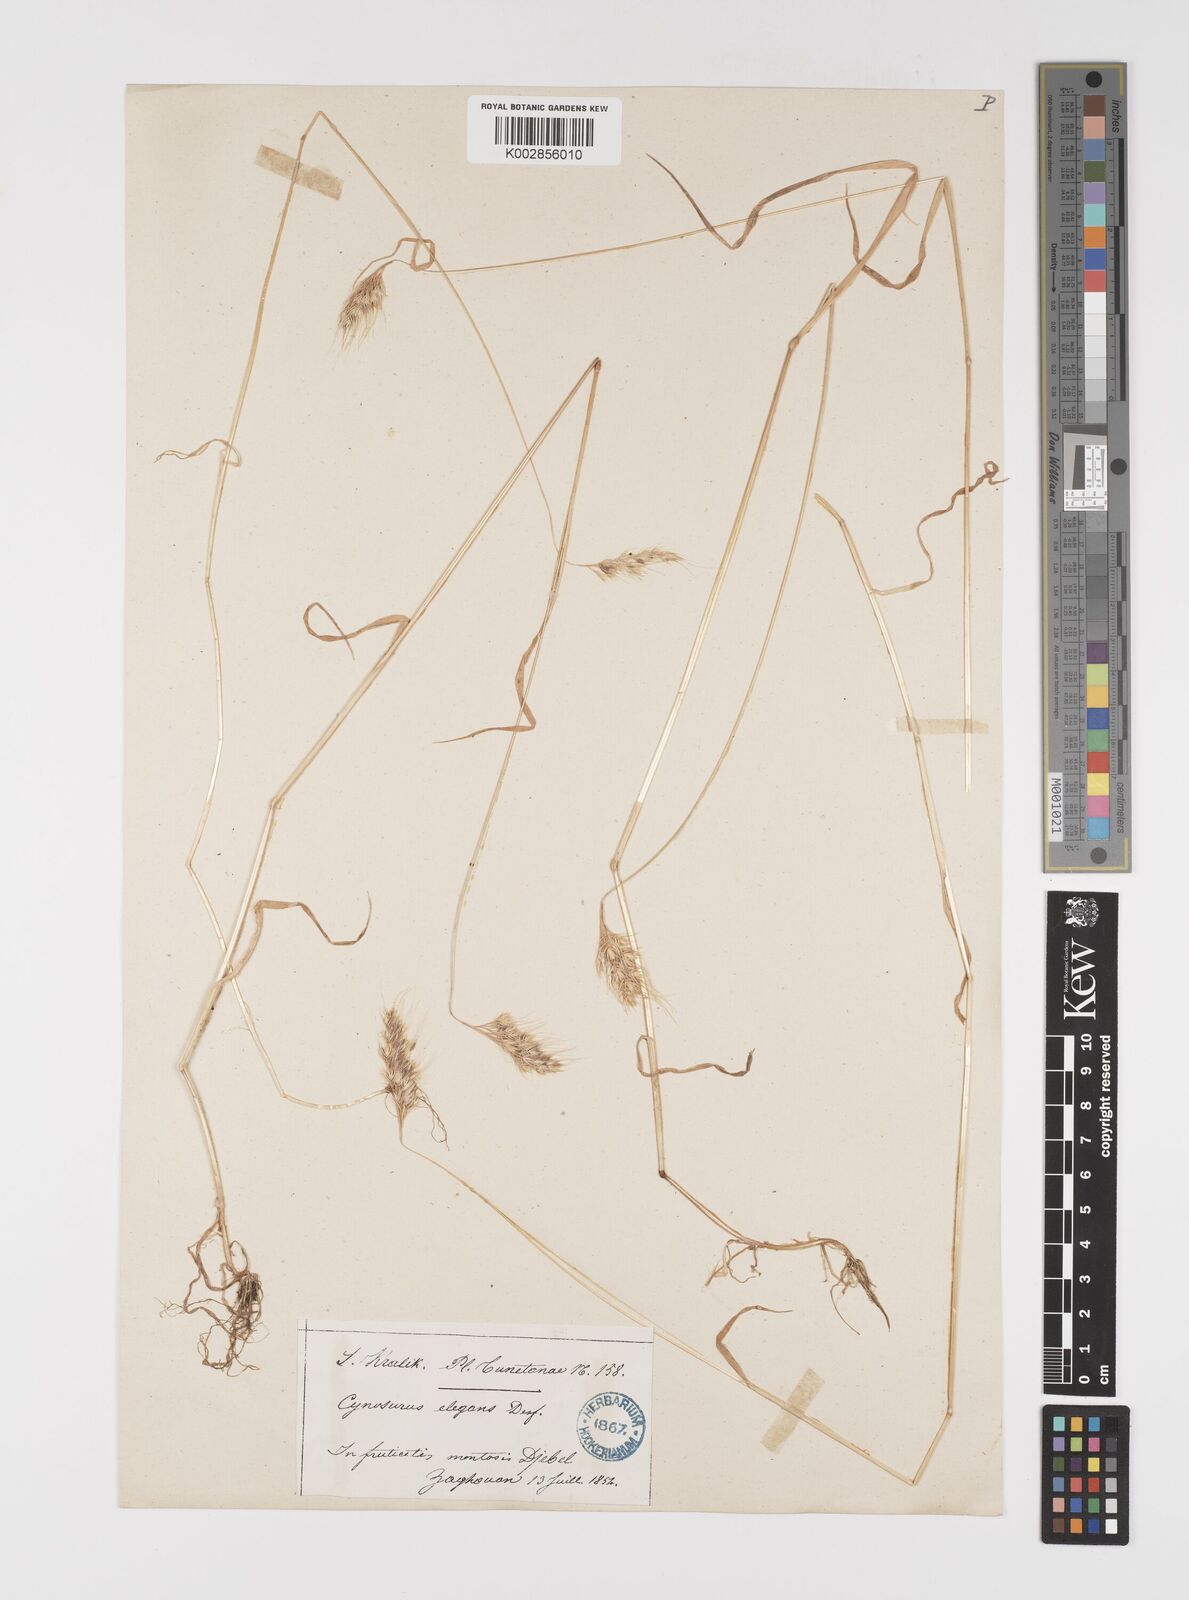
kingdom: Plantae
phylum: Tracheophyta
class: Liliopsida
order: Poales
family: Poaceae
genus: Cynosurus
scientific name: Cynosurus elegans
